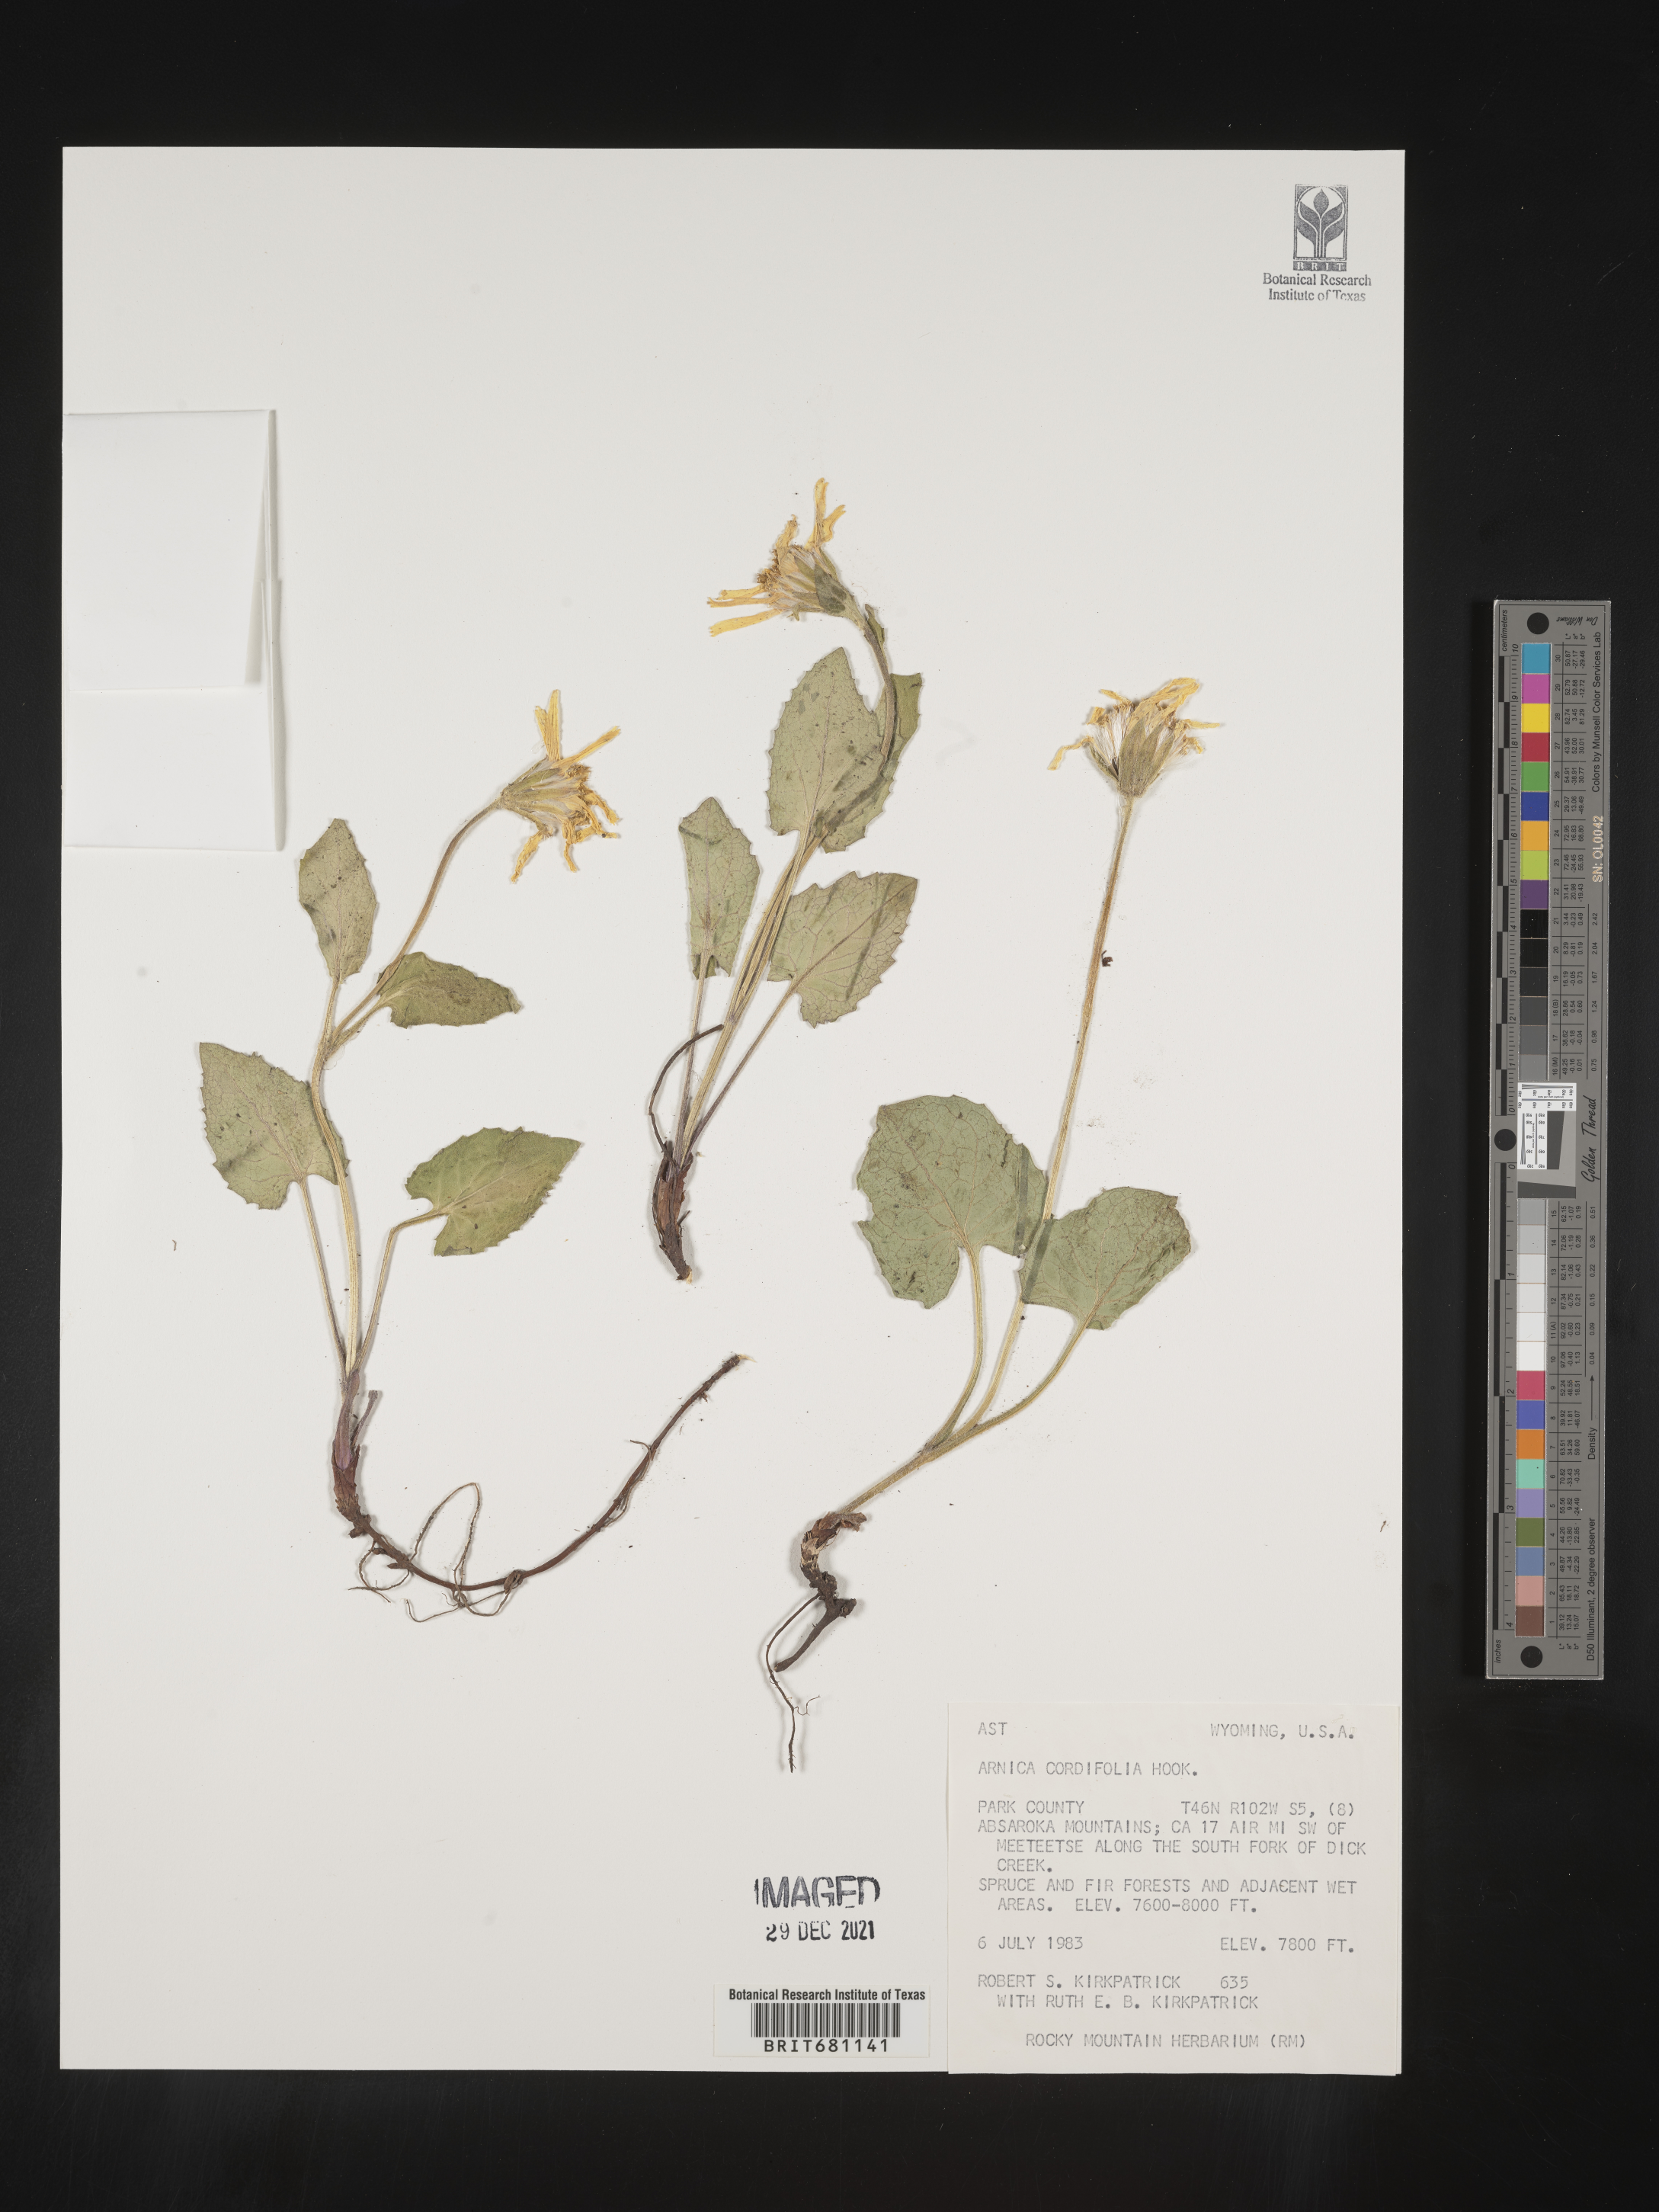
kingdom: Plantae
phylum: Tracheophyta
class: Magnoliopsida
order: Asterales
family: Asteraceae
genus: Arnica
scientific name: Arnica cordifolia
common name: Heart-leaf arnica
